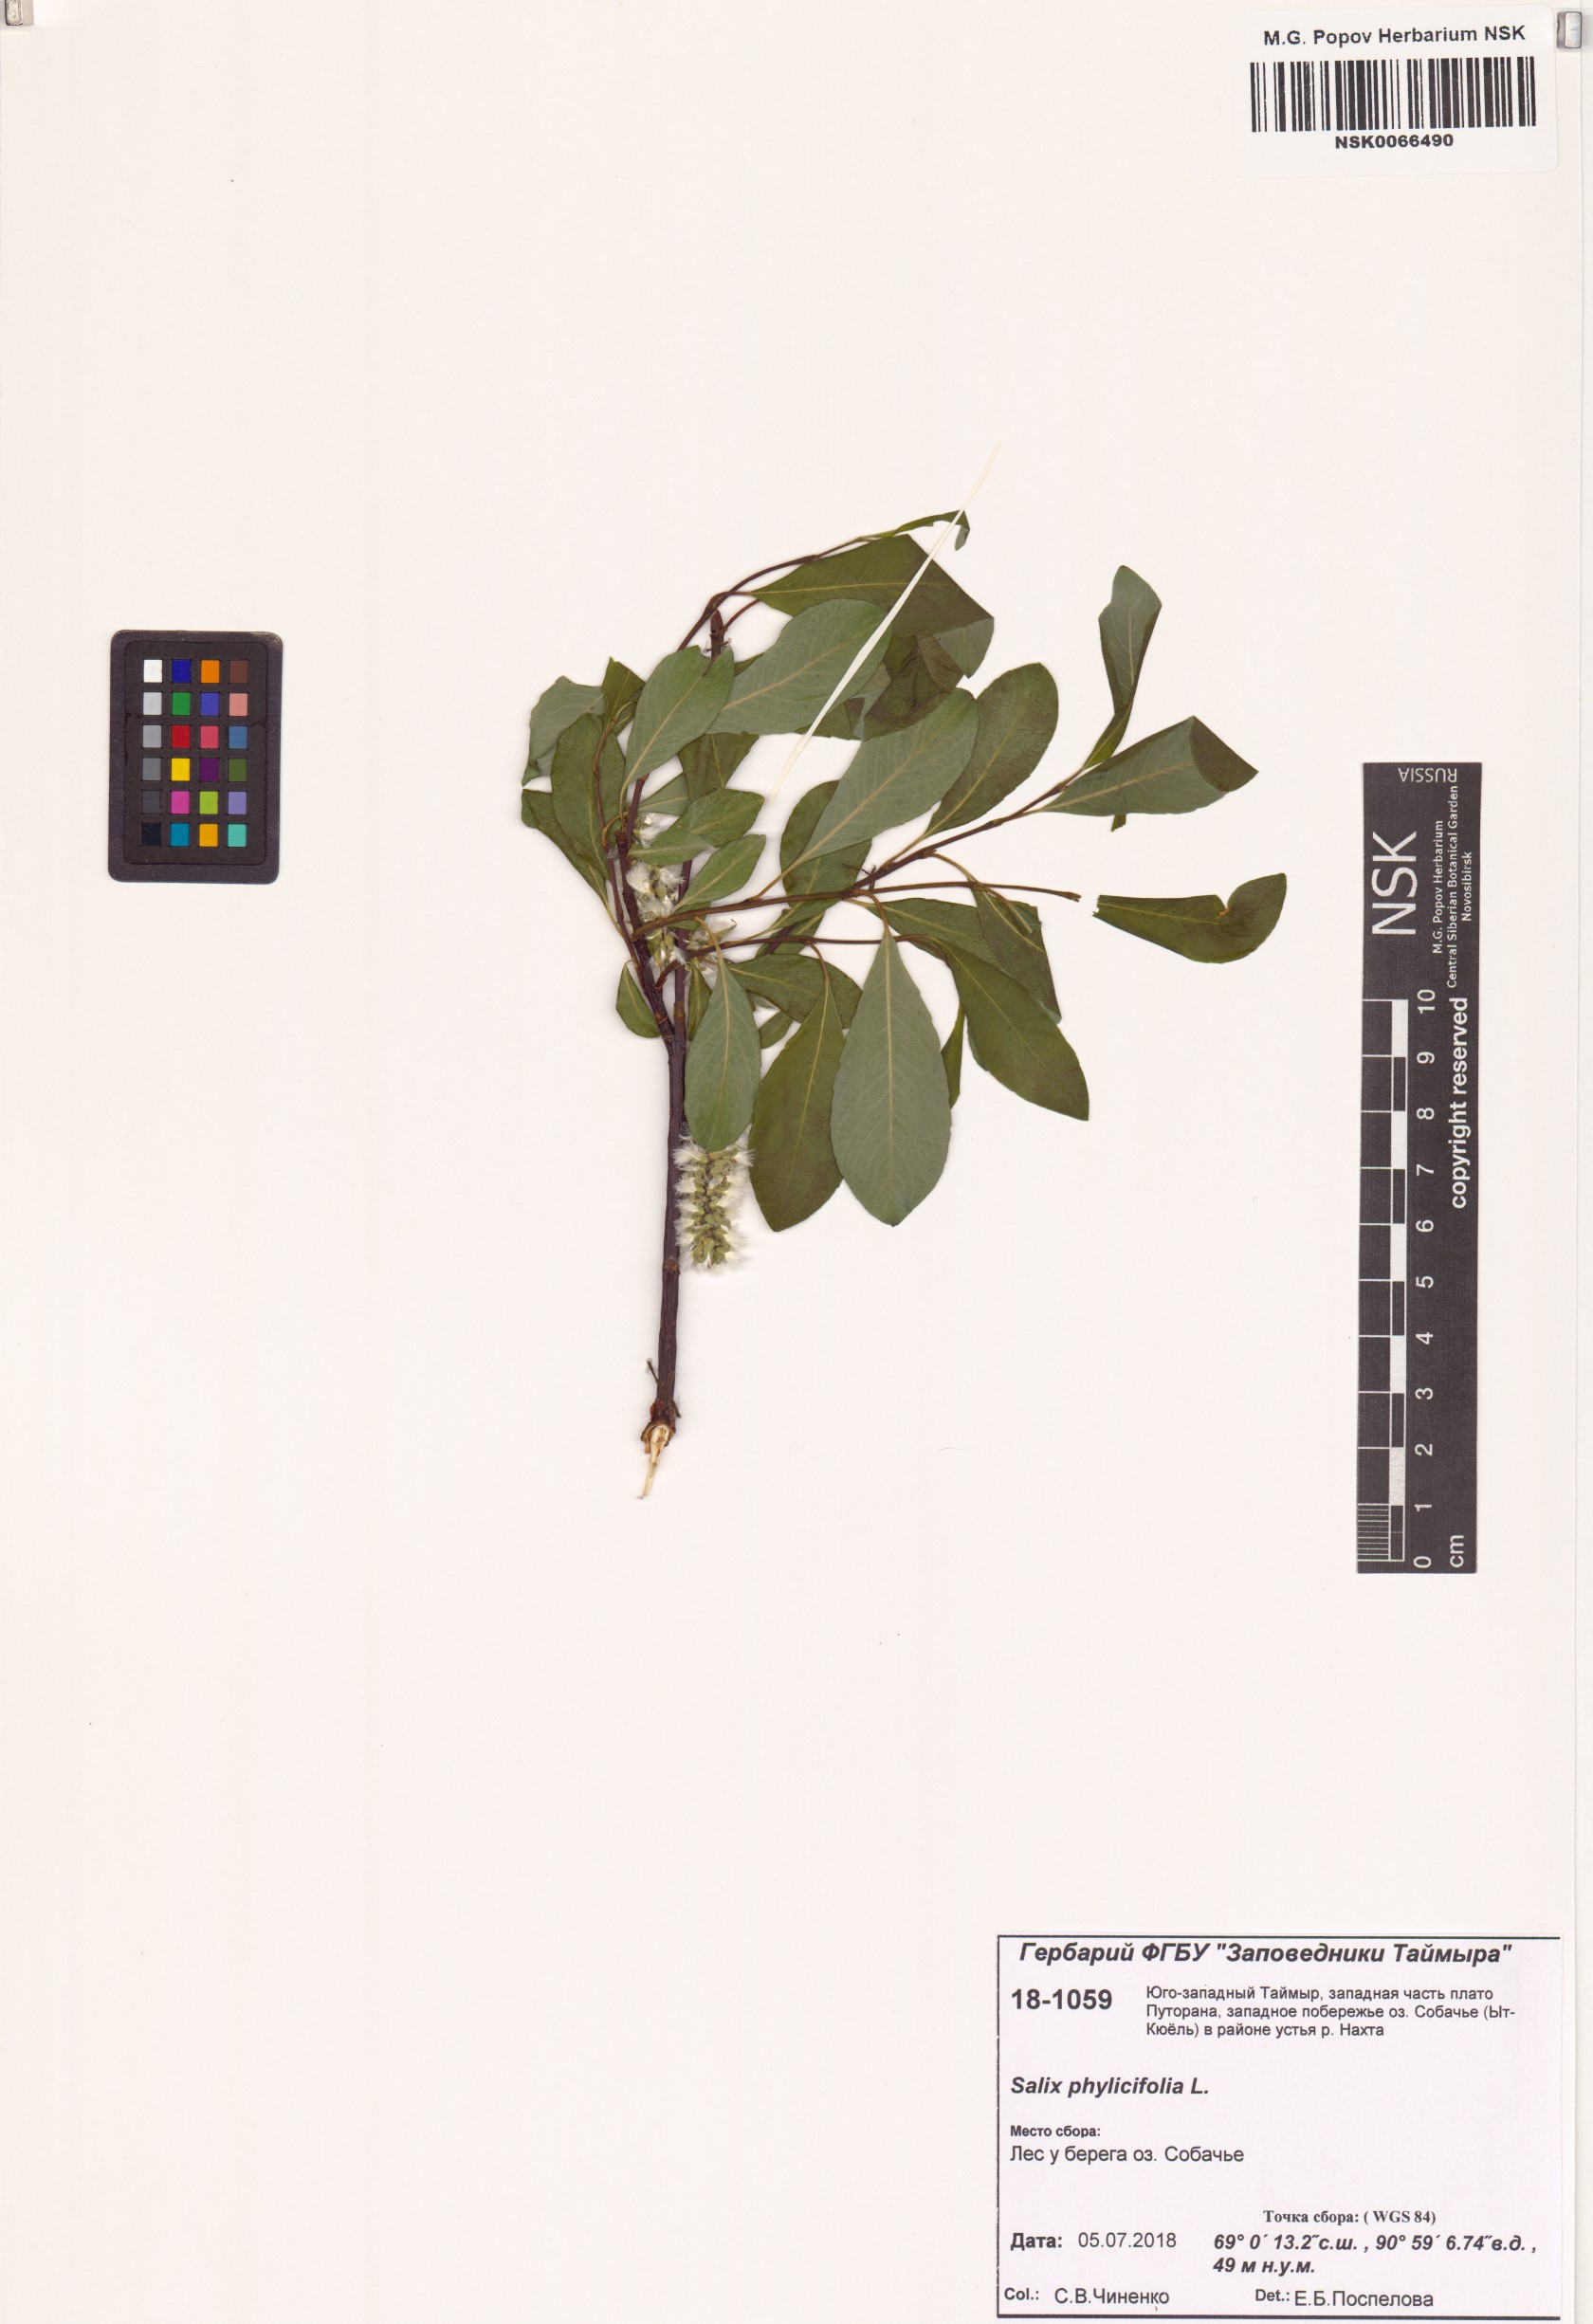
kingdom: Plantae
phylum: Tracheophyta
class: Magnoliopsida
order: Malpighiales
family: Salicaceae
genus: Salix
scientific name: Salix phylicifolia
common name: Tea-leaved willow
